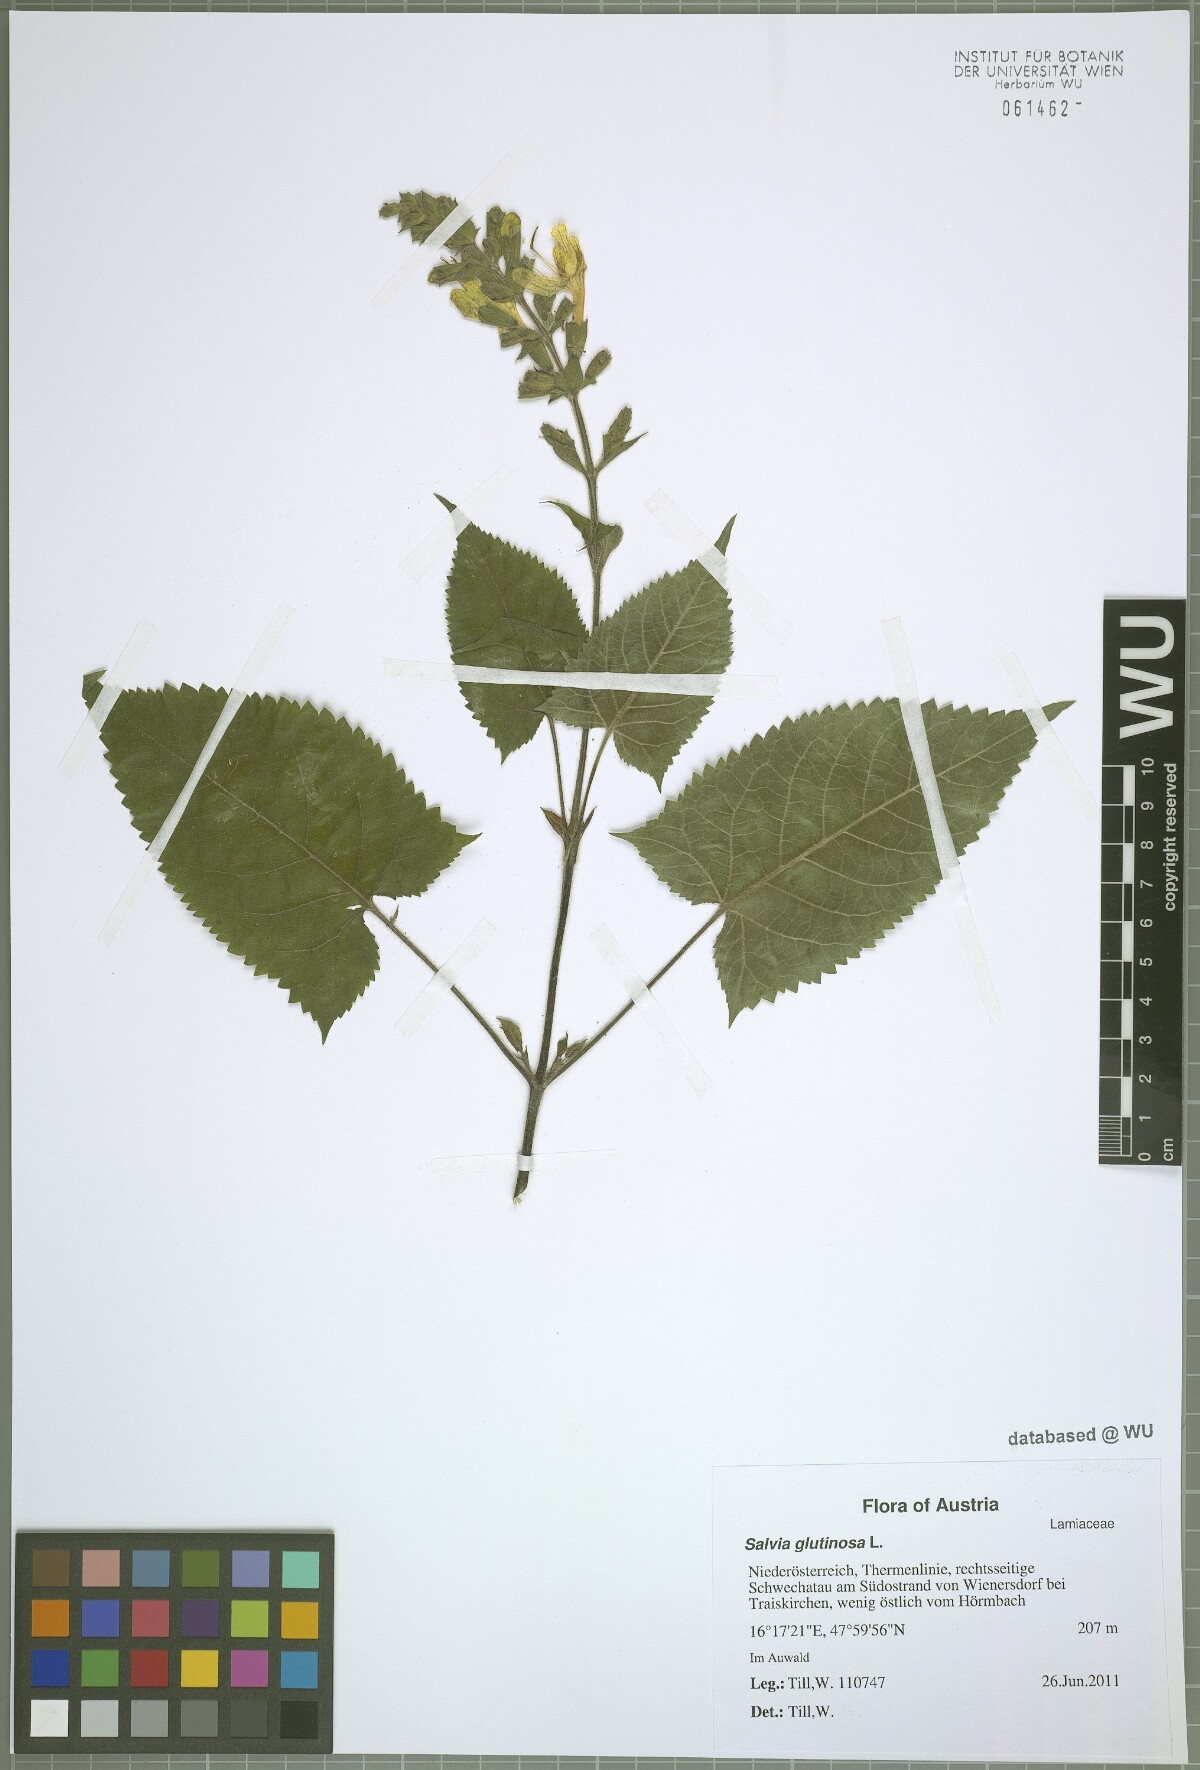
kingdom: Plantae
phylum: Tracheophyta
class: Magnoliopsida
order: Lamiales
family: Lamiaceae
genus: Salvia
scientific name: Salvia glutinosa
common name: Sticky clary
